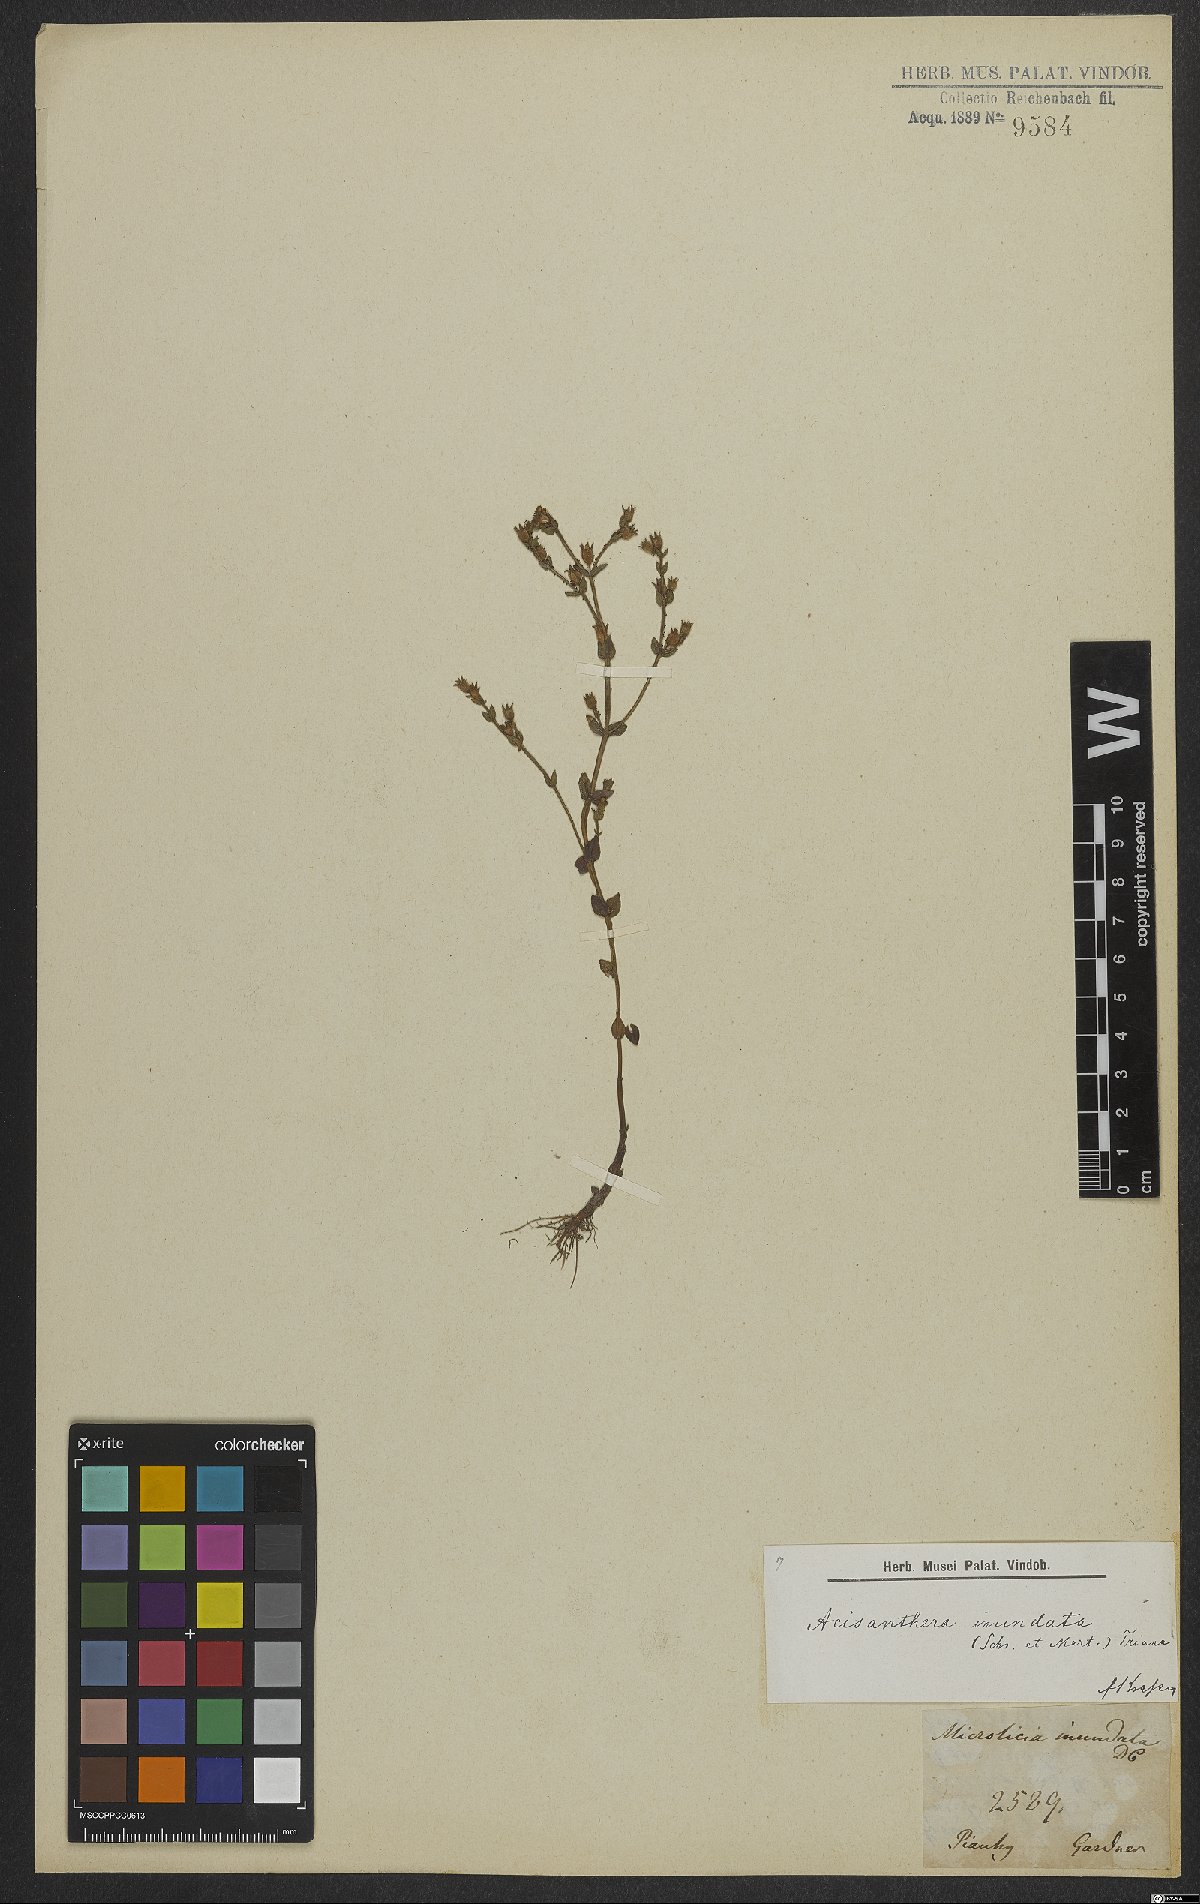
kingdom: Plantae
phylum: Tracheophyta
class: Magnoliopsida
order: Myrtales
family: Melastomataceae
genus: Noterophila
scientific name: Noterophila inundata
